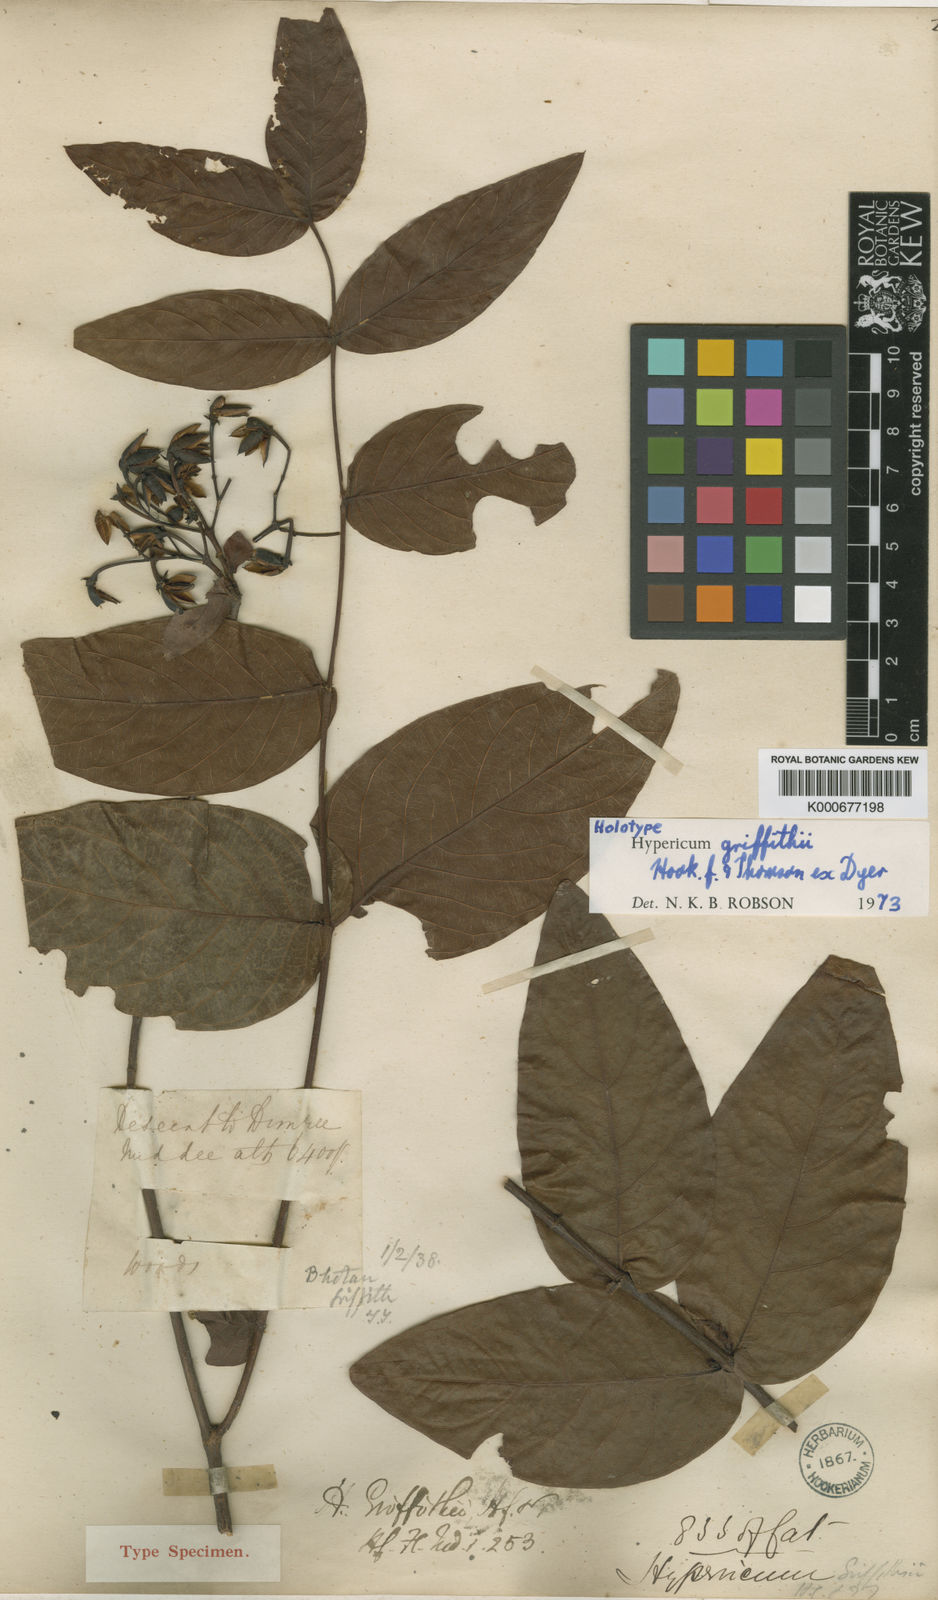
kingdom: Plantae
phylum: Tracheophyta
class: Magnoliopsida
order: Malpighiales
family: Hypericaceae
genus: Hypericum
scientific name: Hypericum griffithii
